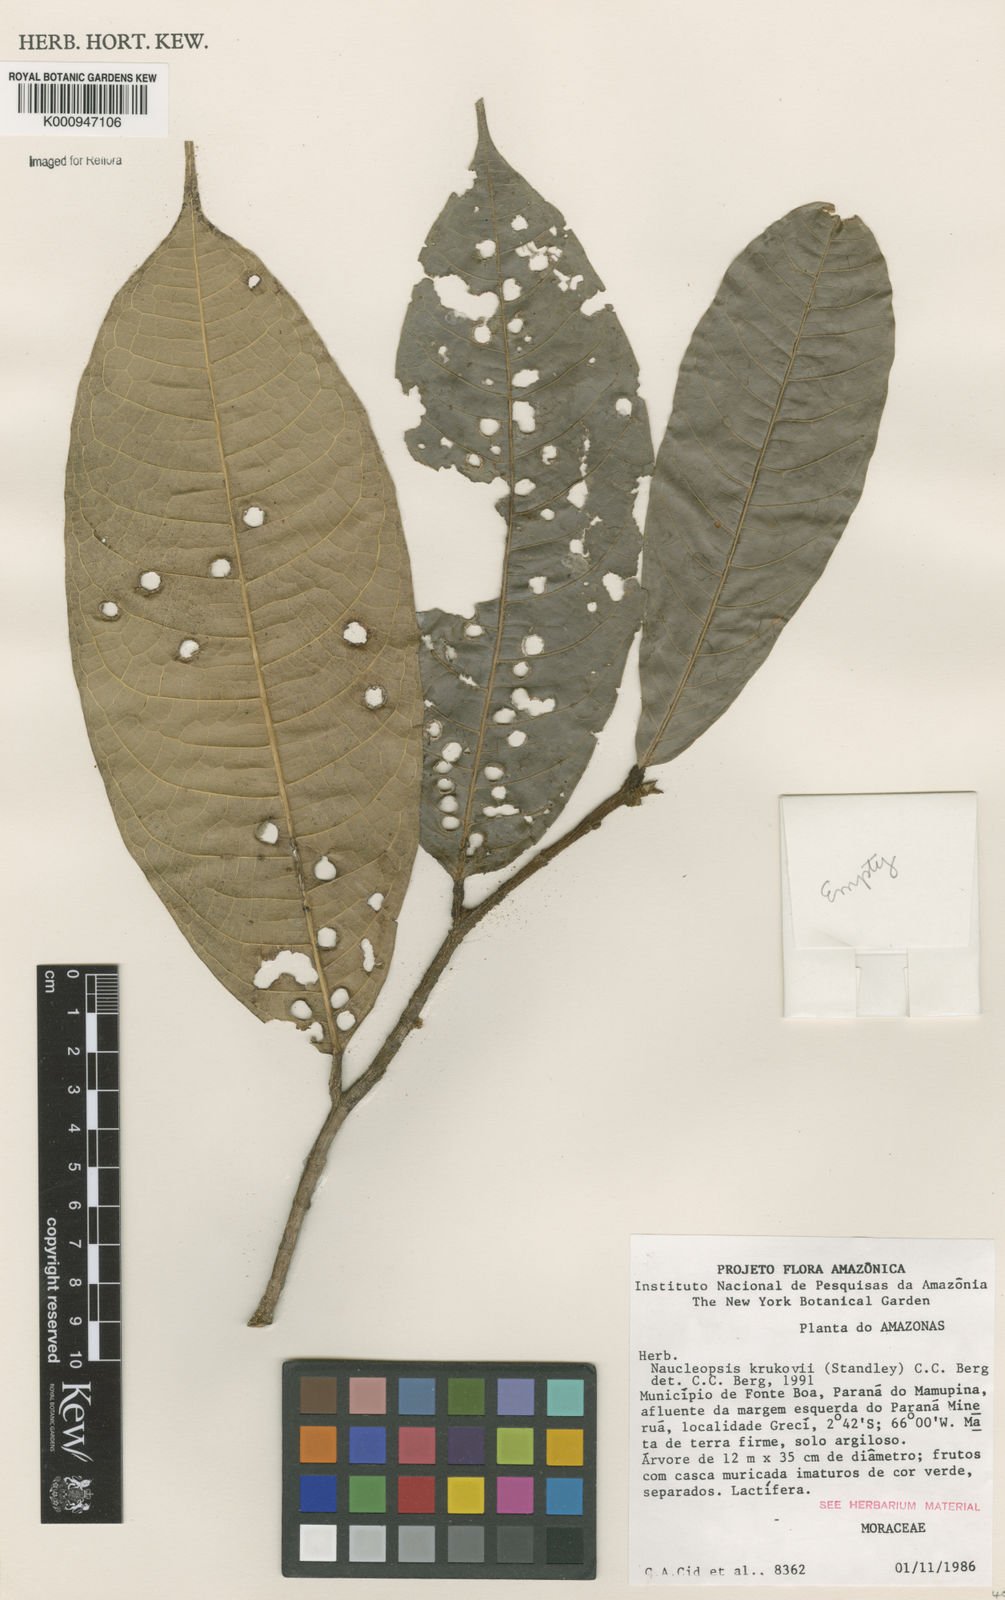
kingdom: Plantae
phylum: Tracheophyta
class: Magnoliopsida
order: Rosales
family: Moraceae
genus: Naucleopsis
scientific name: Naucleopsis krukovii
